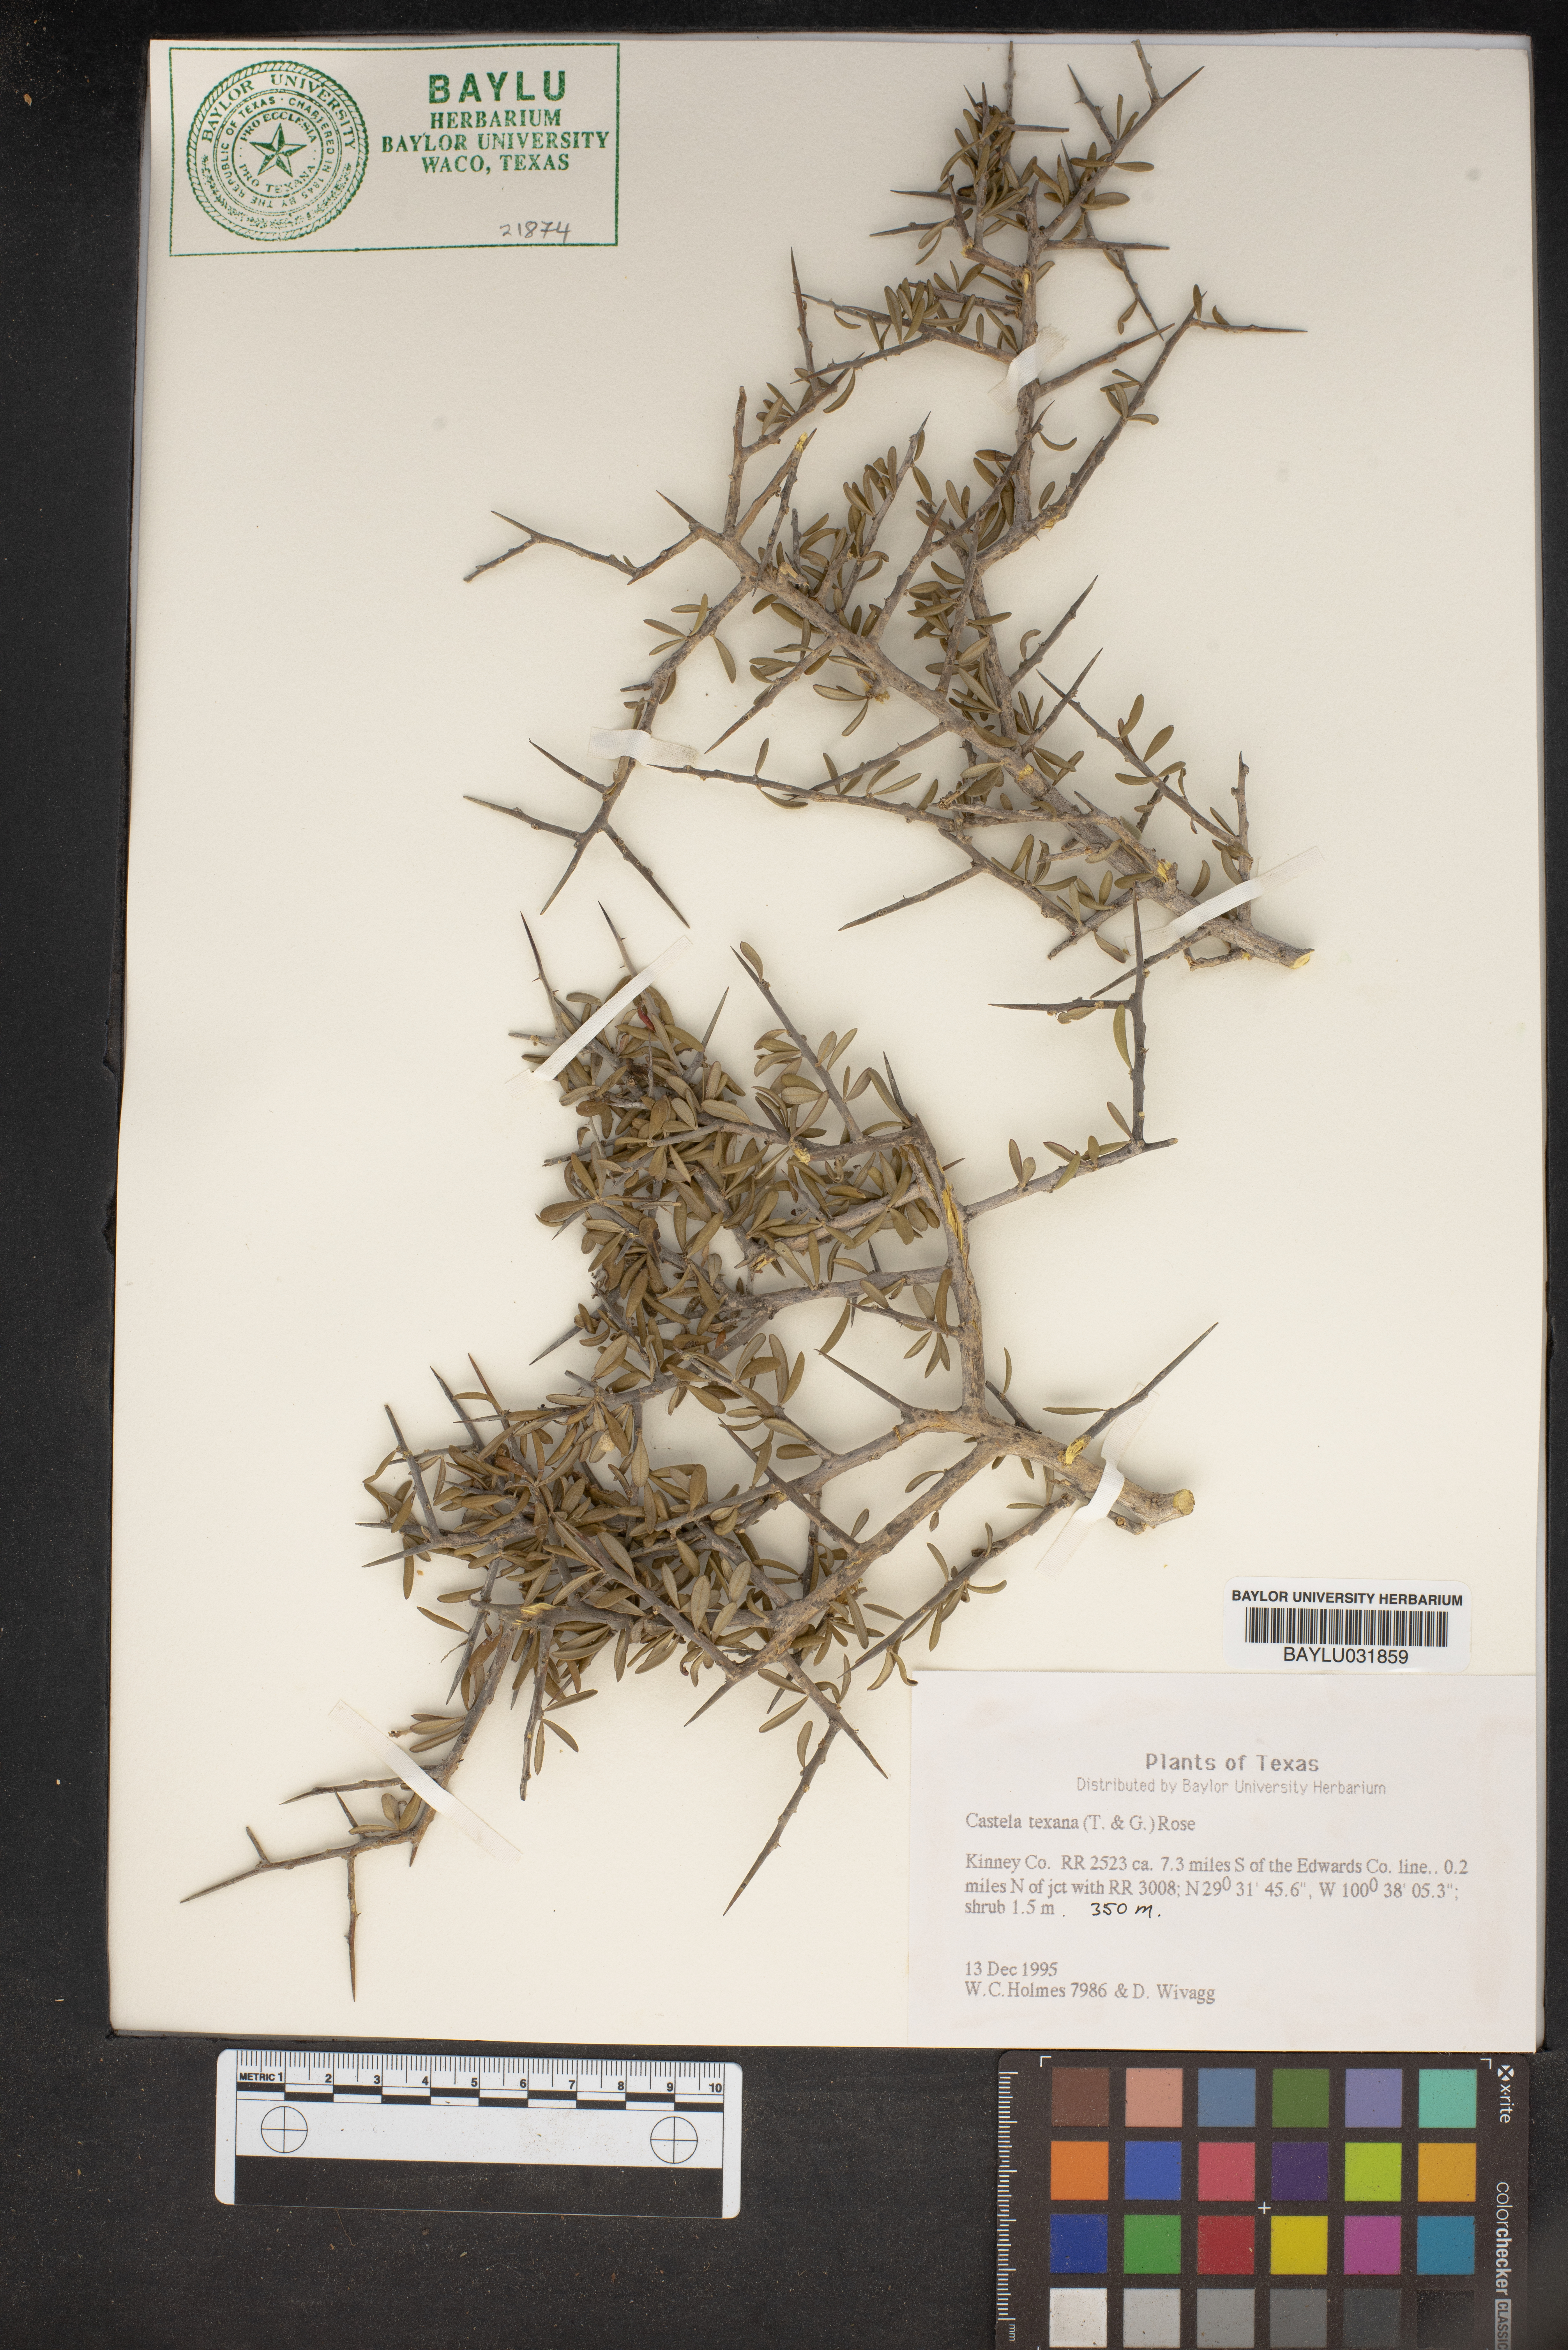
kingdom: Plantae
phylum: Tracheophyta
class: Magnoliopsida
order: Sapindales
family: Simaroubaceae
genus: Castela
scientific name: Castela tortuosa
